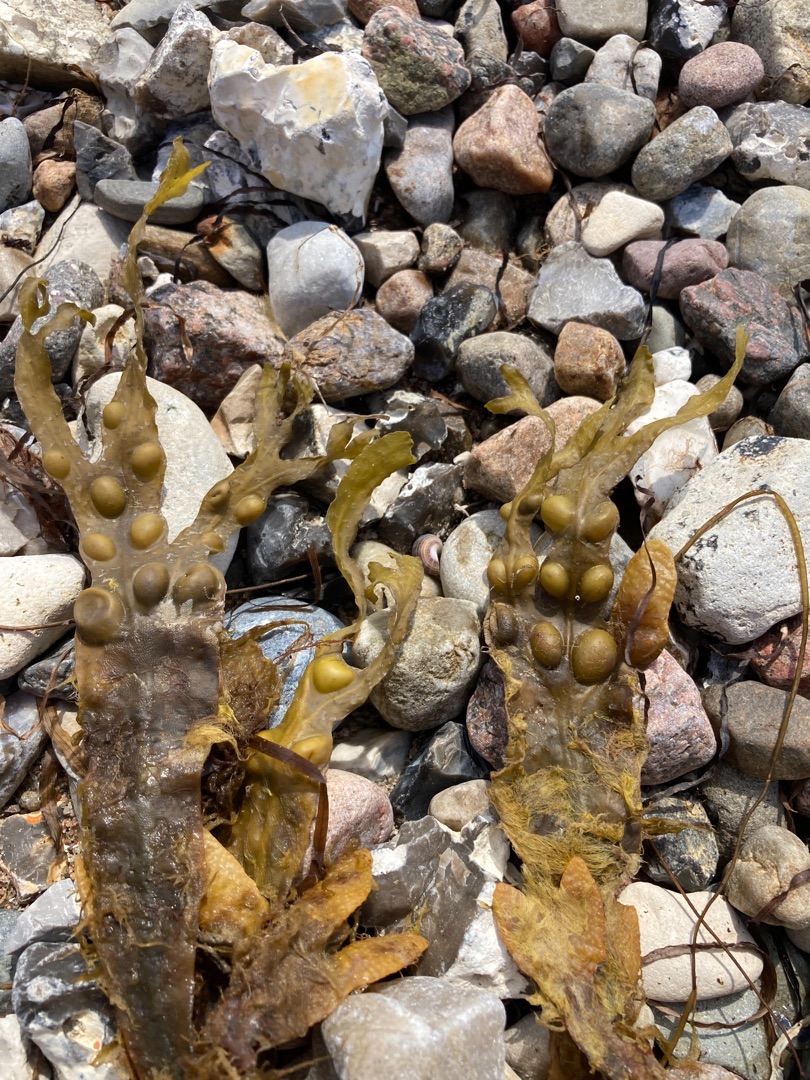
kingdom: Chromista
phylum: Ochrophyta
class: Phaeophyceae
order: Fucales
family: Fucaceae
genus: Fucus
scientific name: Fucus vesiculosus
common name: Blæretang
